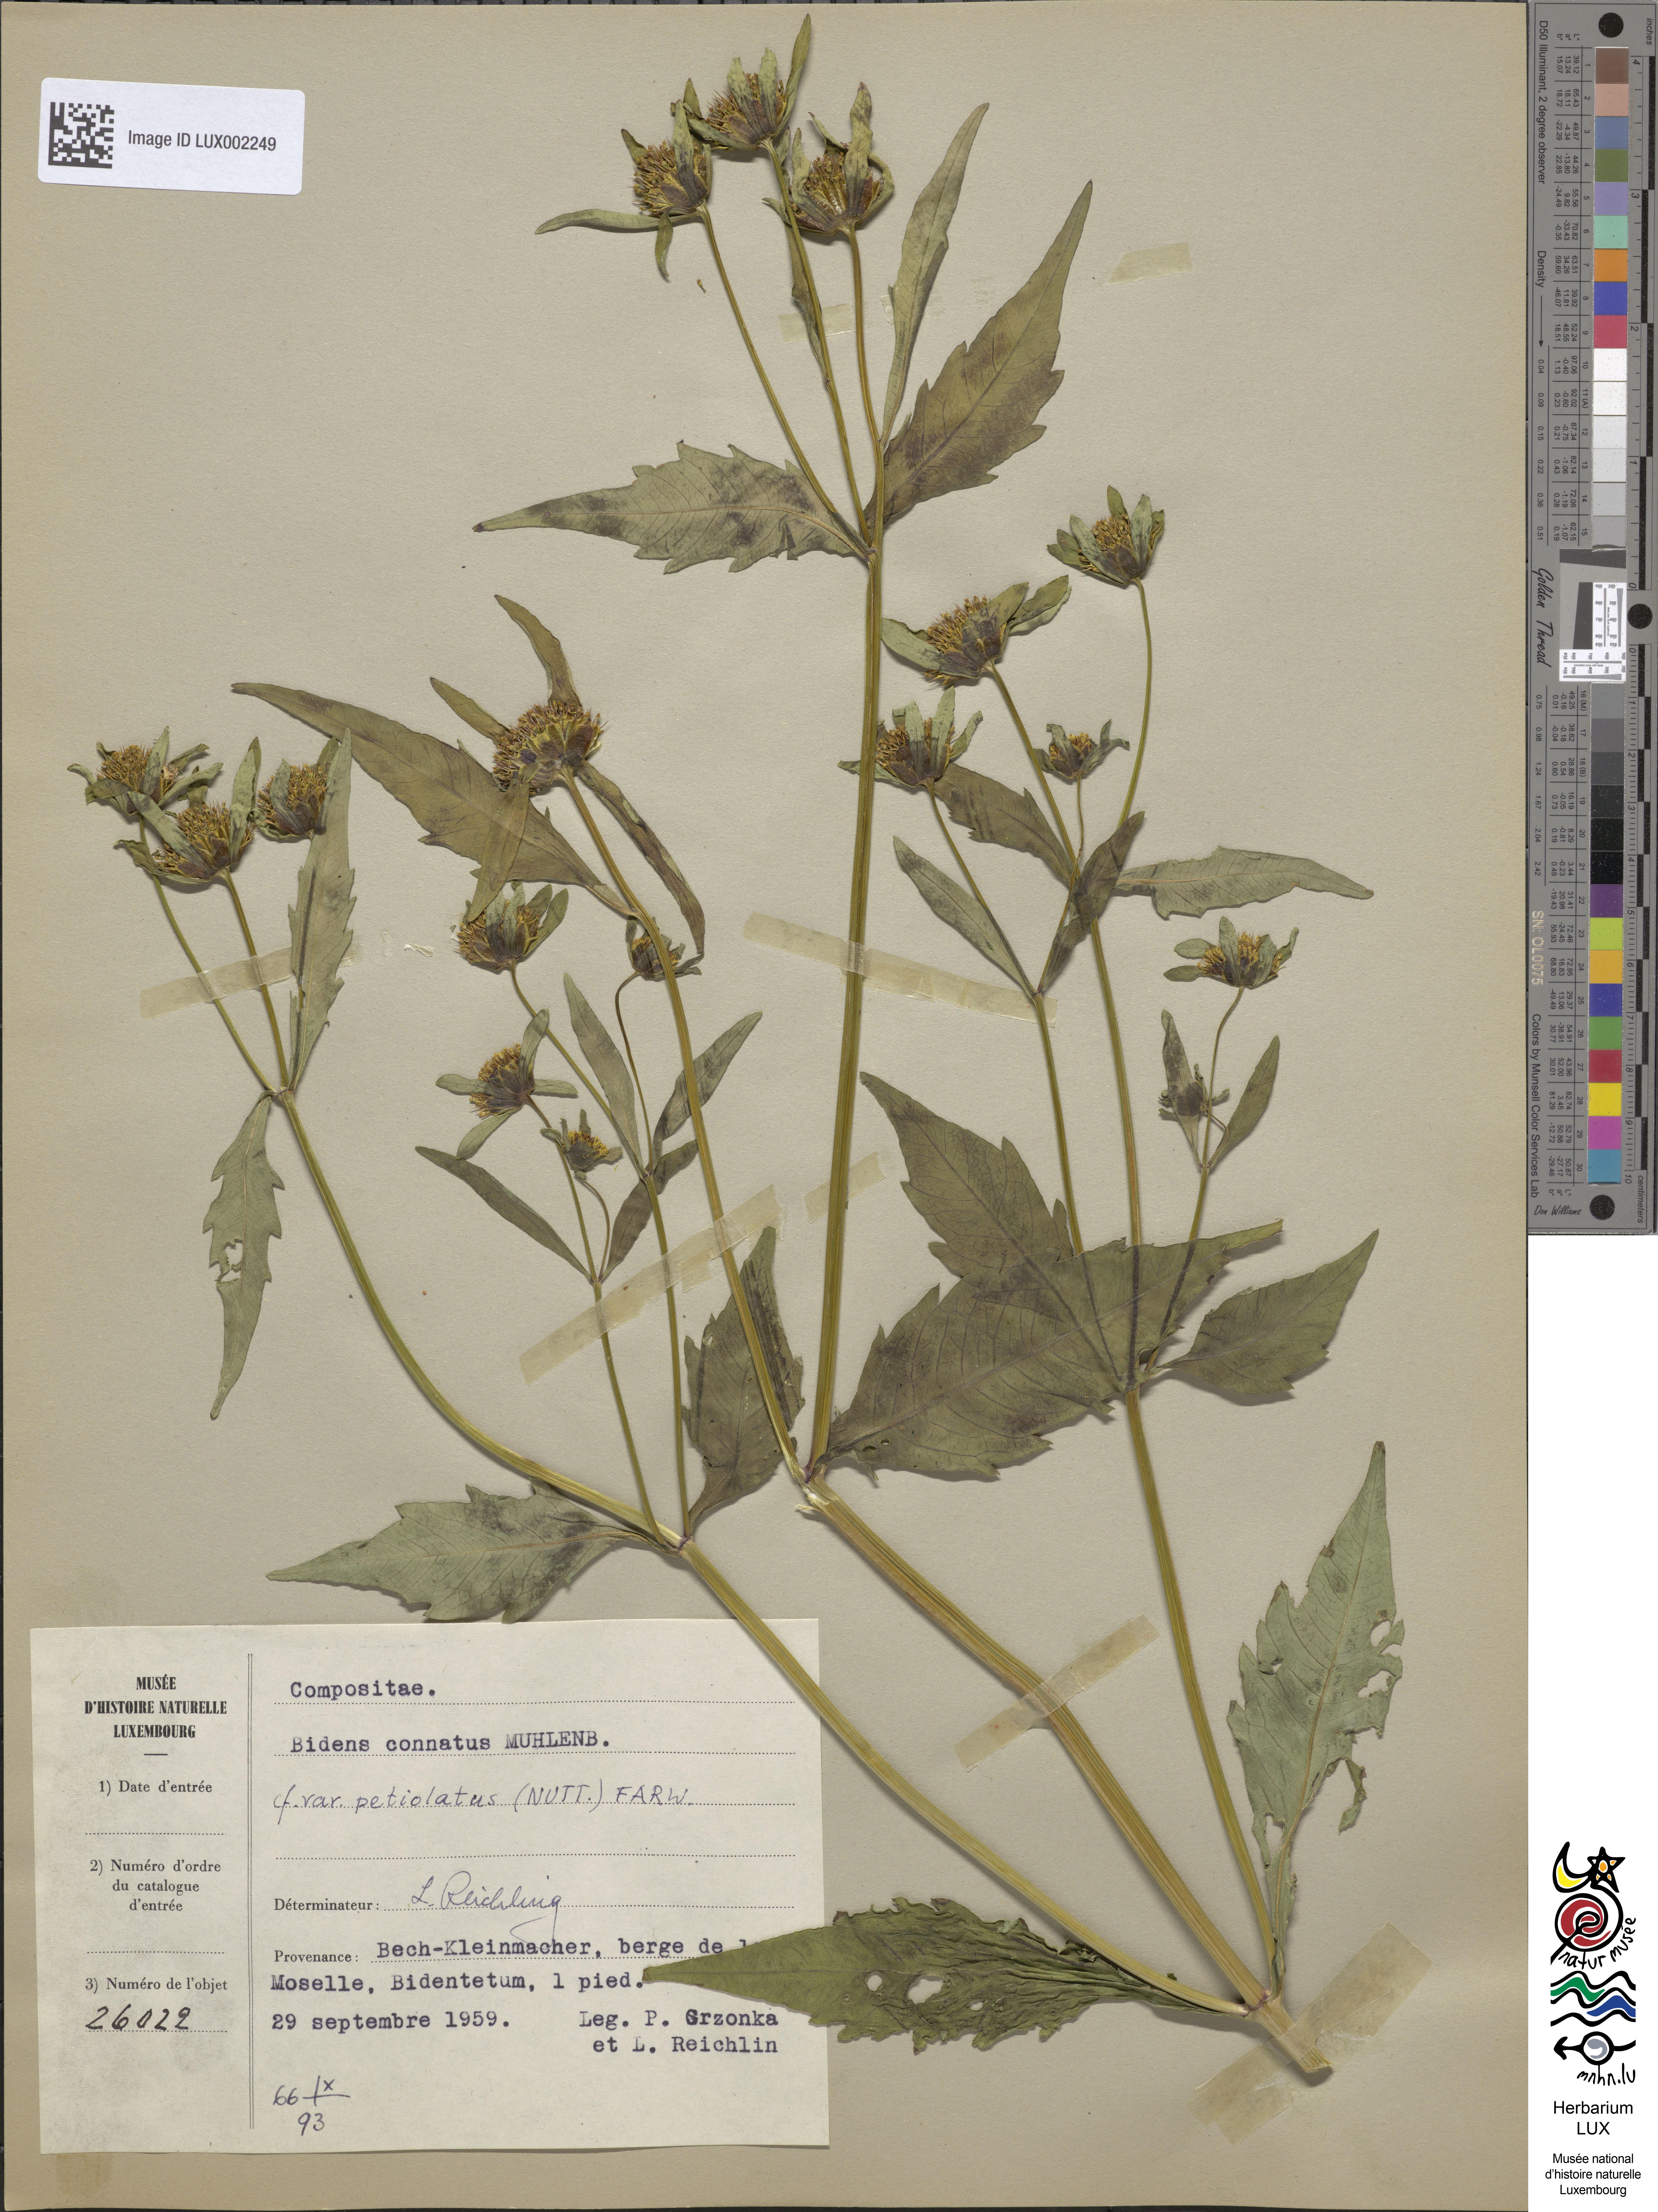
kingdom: Plantae
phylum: Tracheophyta
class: Magnoliopsida
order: Asterales
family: Asteraceae
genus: Bidens
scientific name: Bidens connata
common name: London bur-marigold
